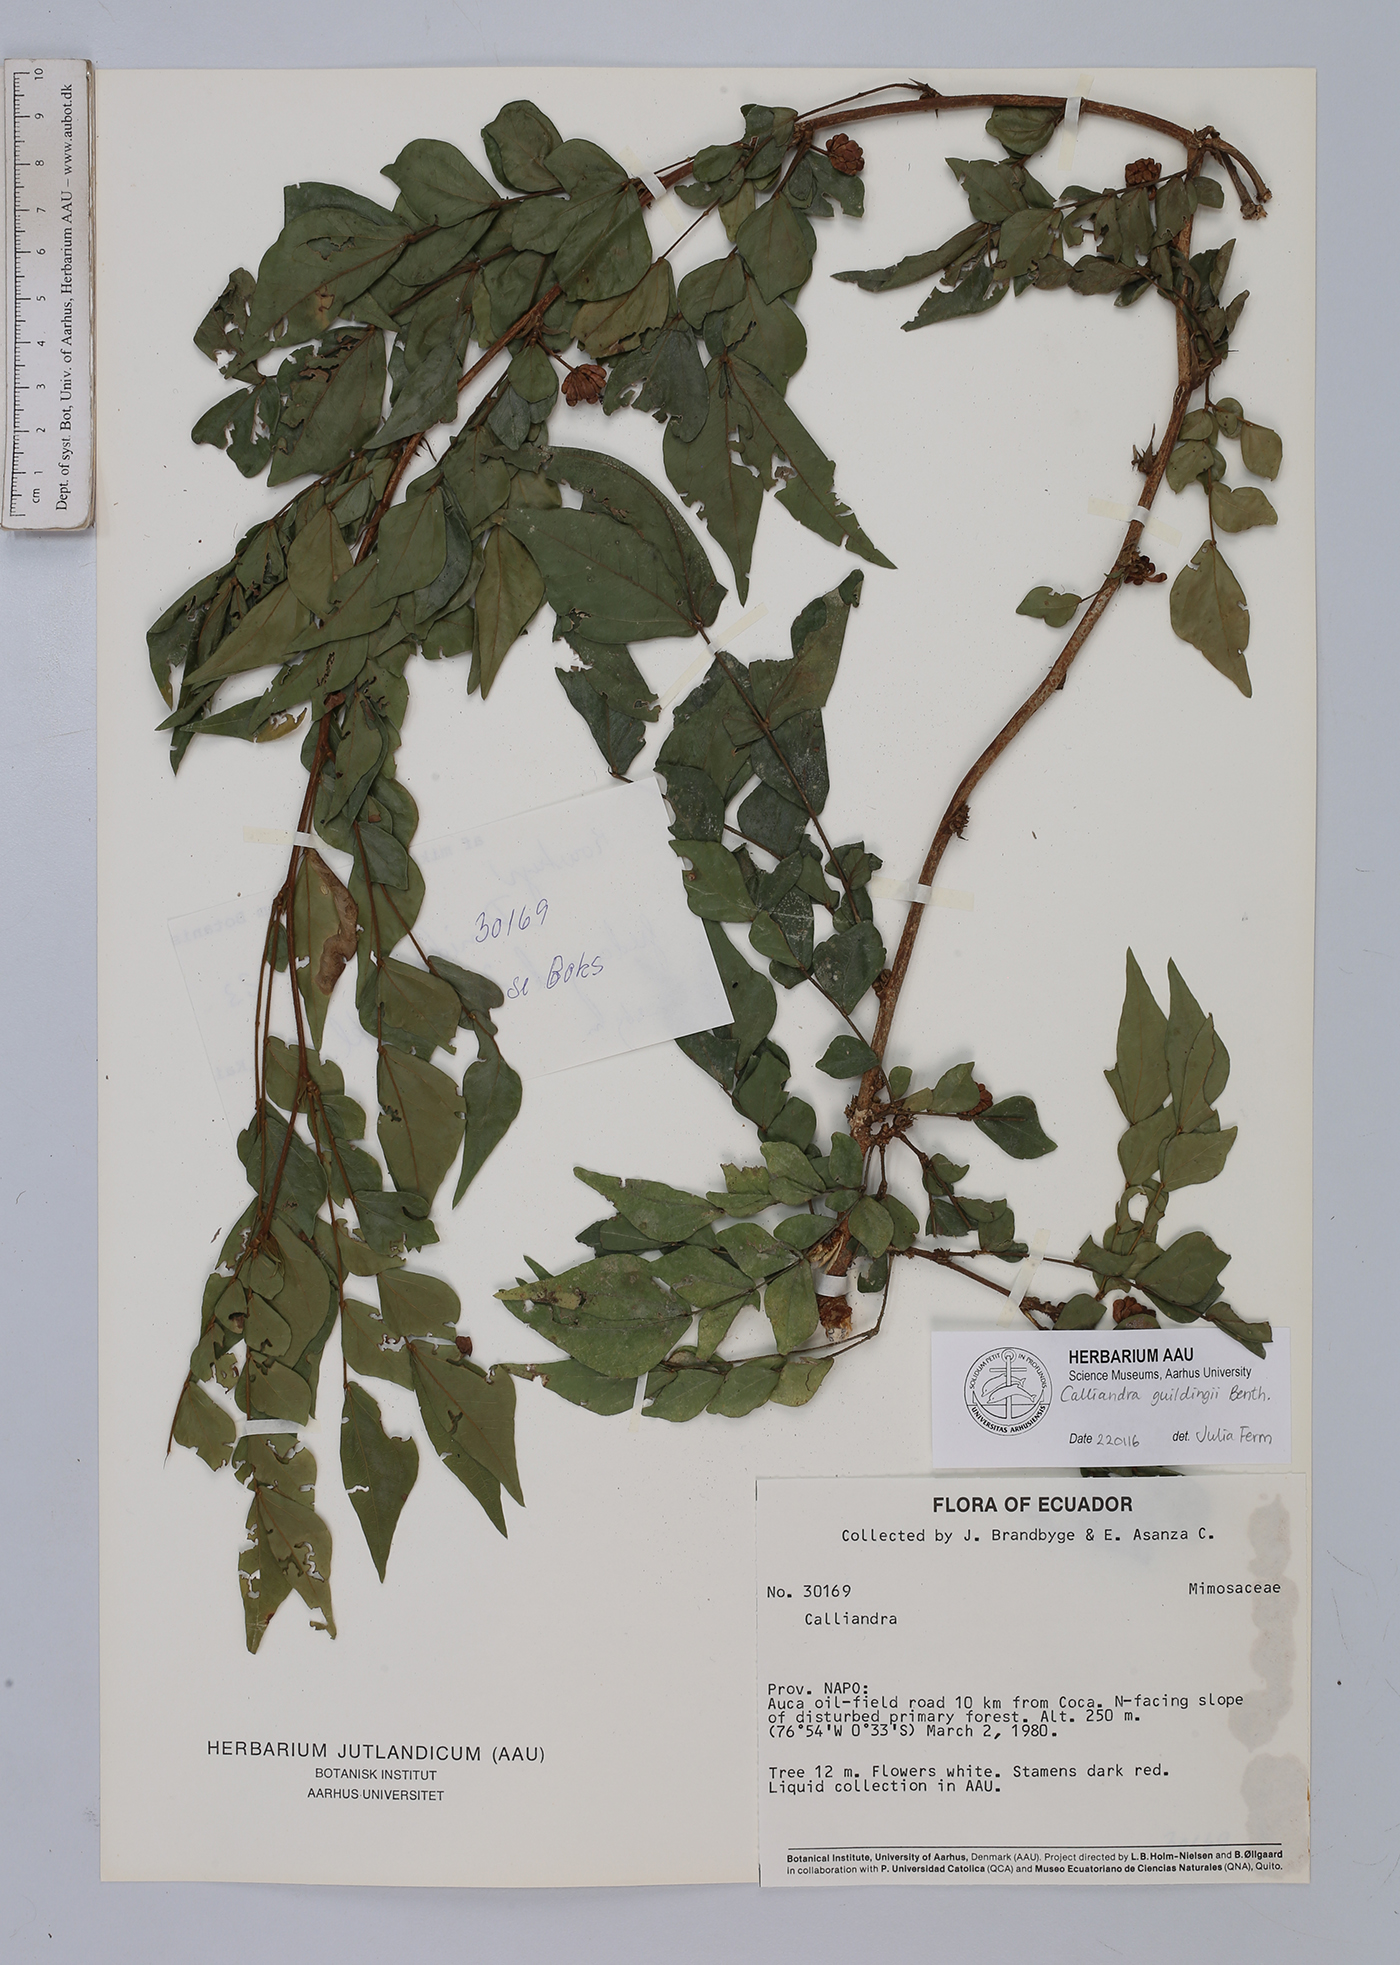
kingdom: Plantae
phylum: Tracheophyta
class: Magnoliopsida
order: Fabales
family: Fabaceae
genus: Calliandra
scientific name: Calliandra guildingii
